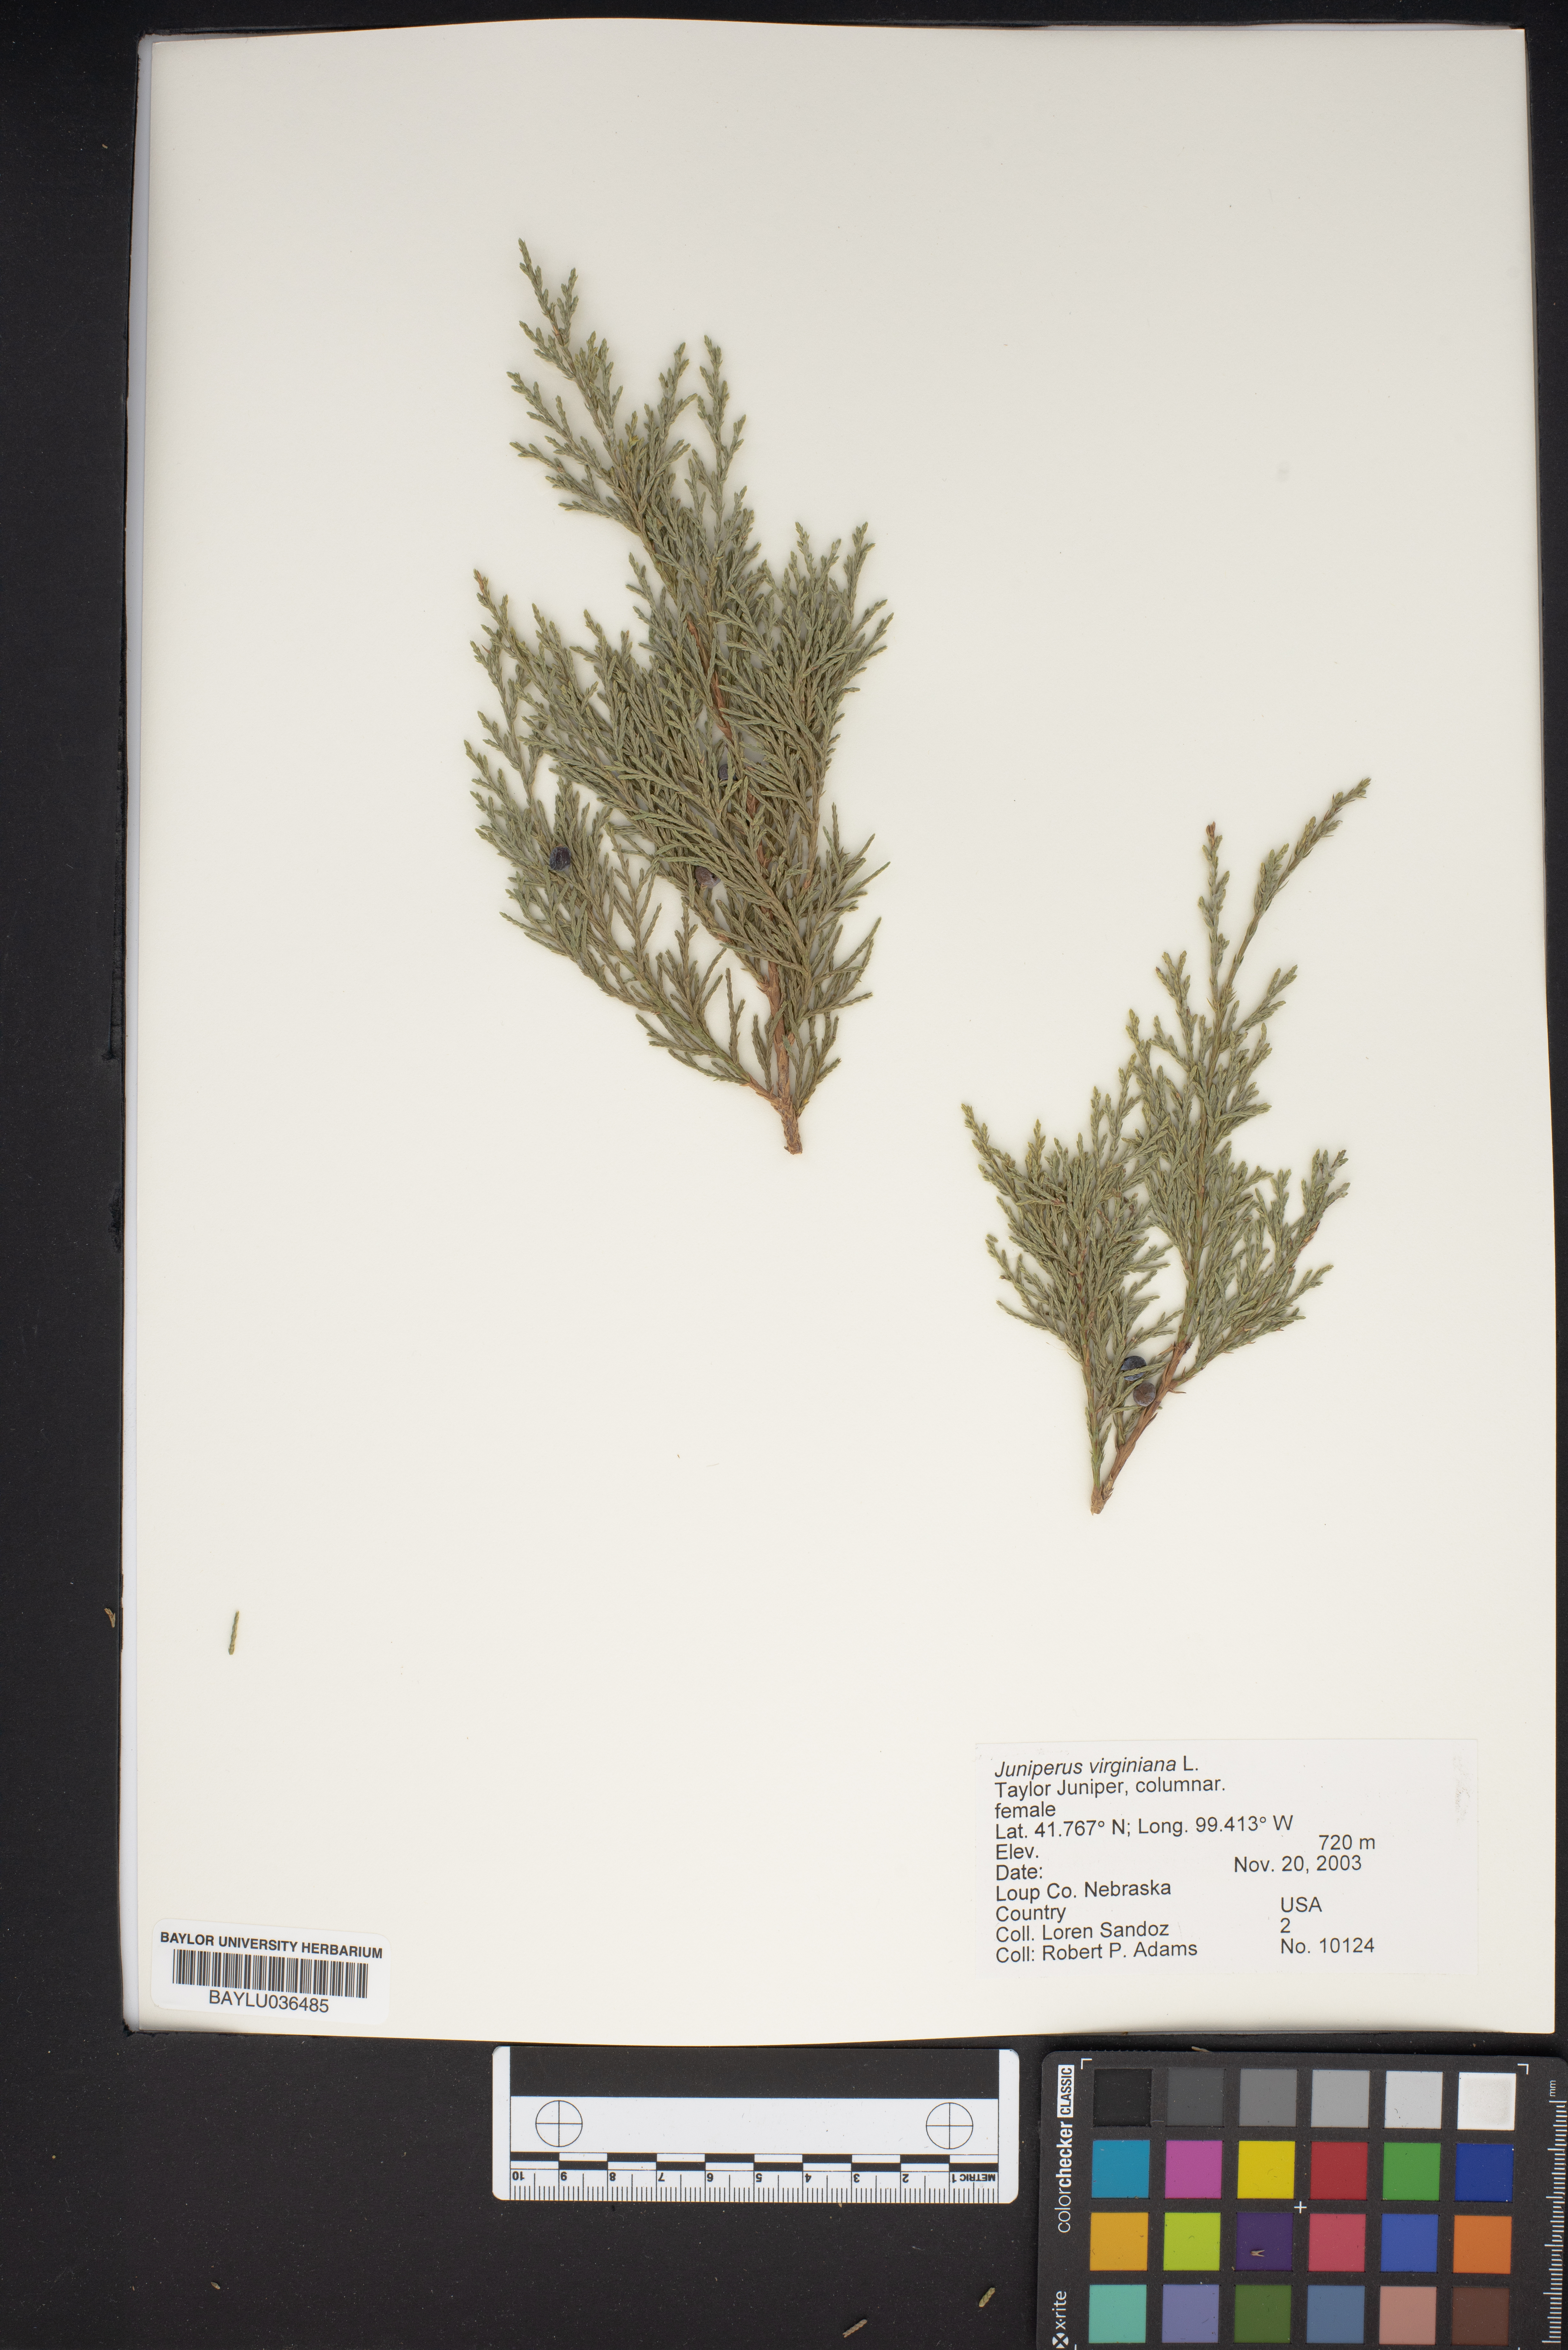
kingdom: Plantae
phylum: Tracheophyta
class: Pinopsida
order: Pinales
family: Cupressaceae
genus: Juniperus
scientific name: Juniperus virginiana
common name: Red juniper
